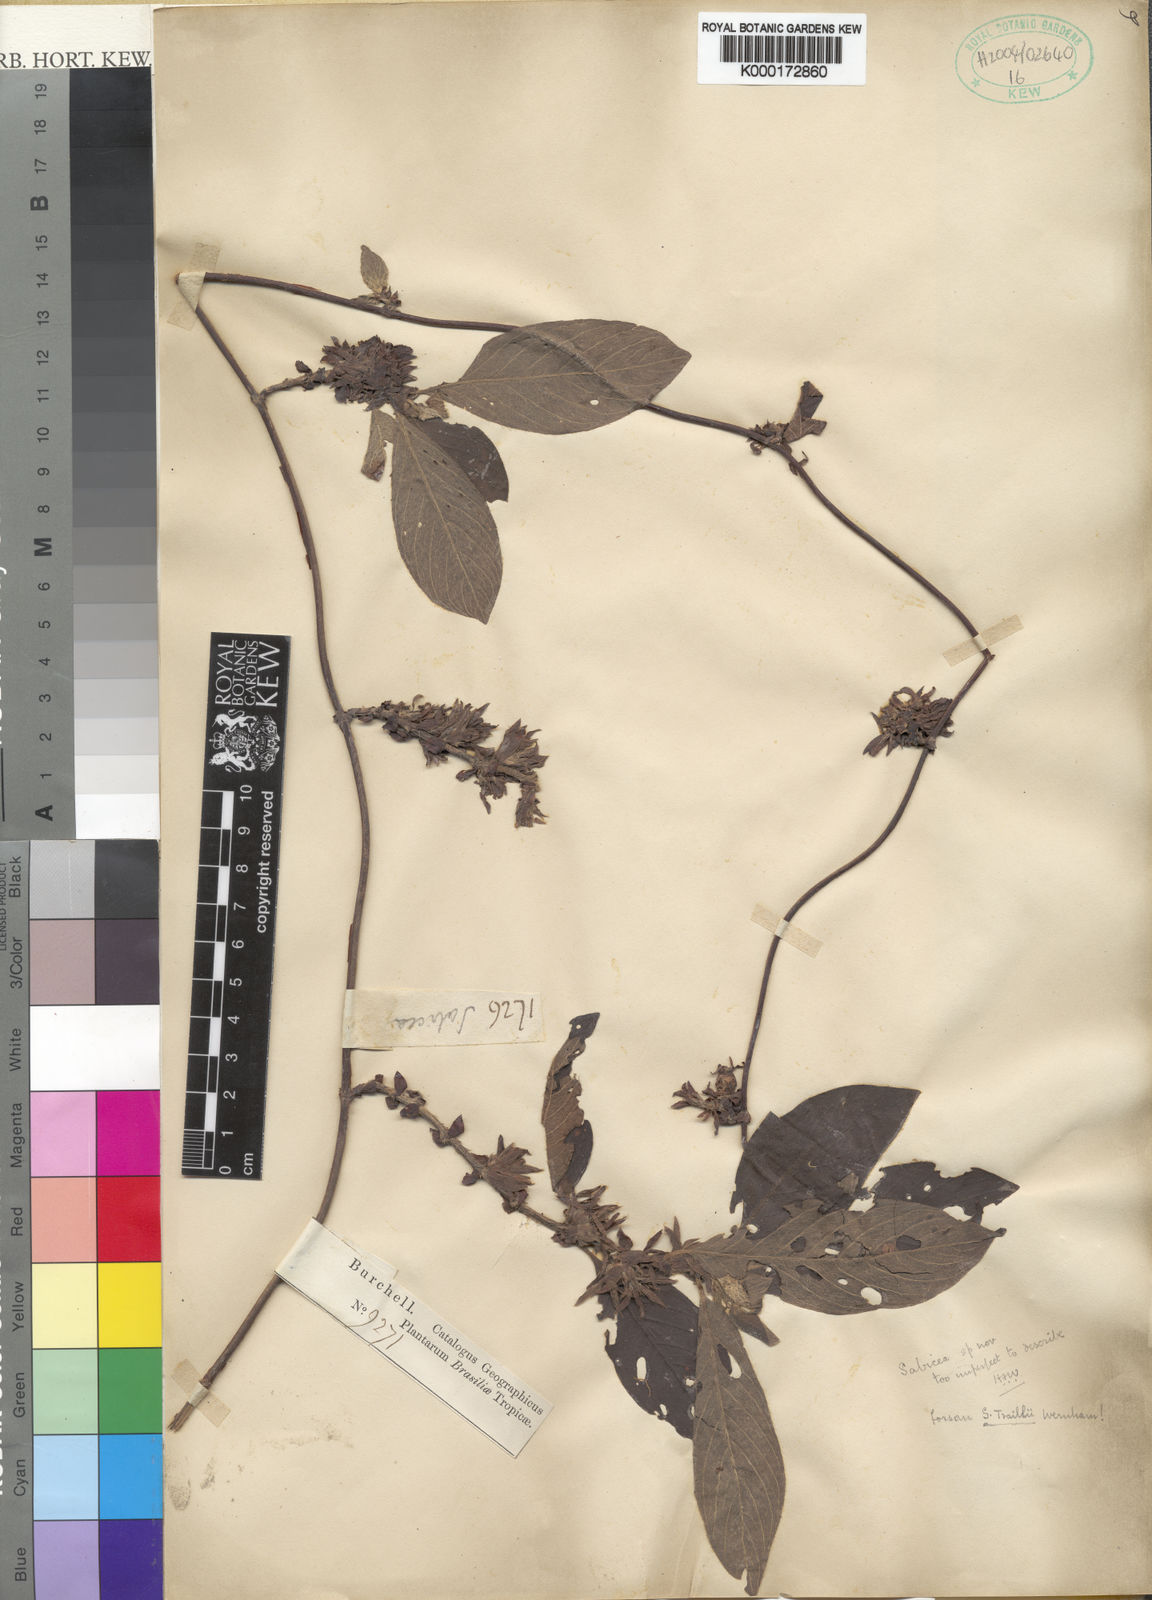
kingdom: Plantae
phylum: Tracheophyta
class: Magnoliopsida
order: Gentianales
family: Rubiaceae
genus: Sabicea
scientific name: Sabicea burchellii
